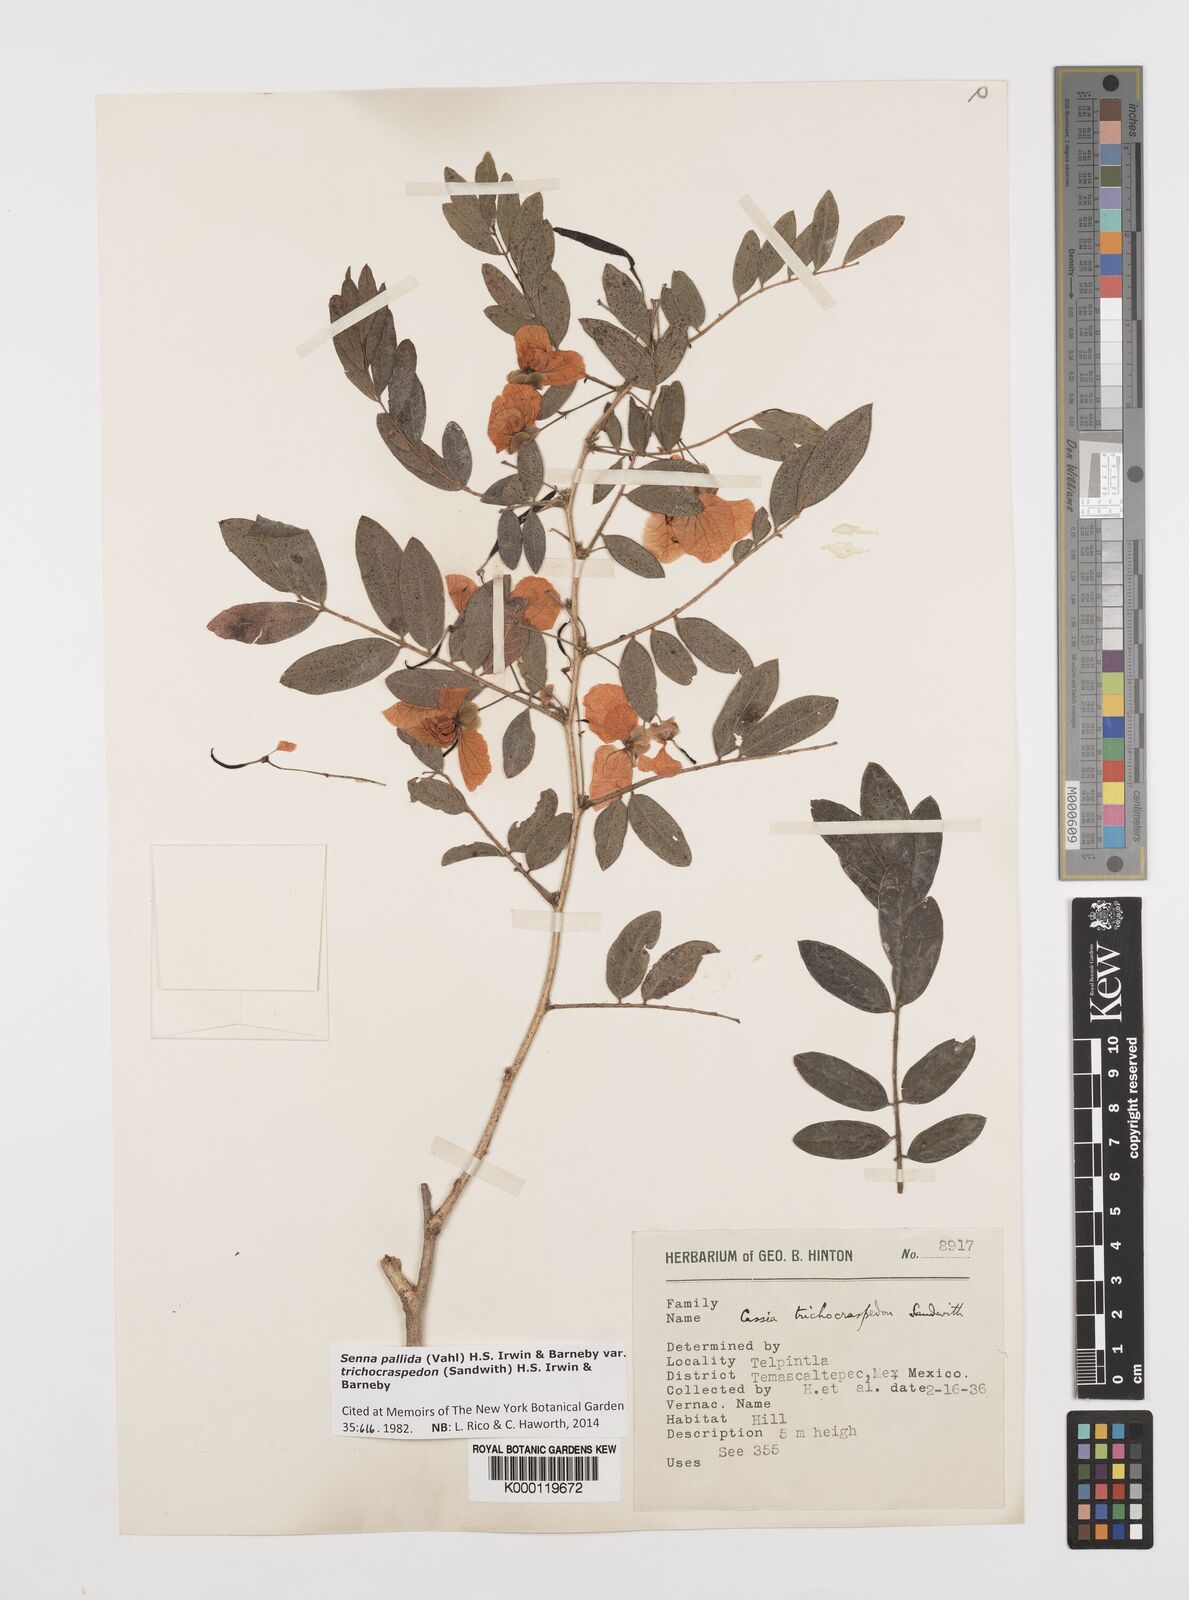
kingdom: Plantae
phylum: Tracheophyta
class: Magnoliopsida
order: Fabales
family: Fabaceae
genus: Senna
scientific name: Senna pallida
